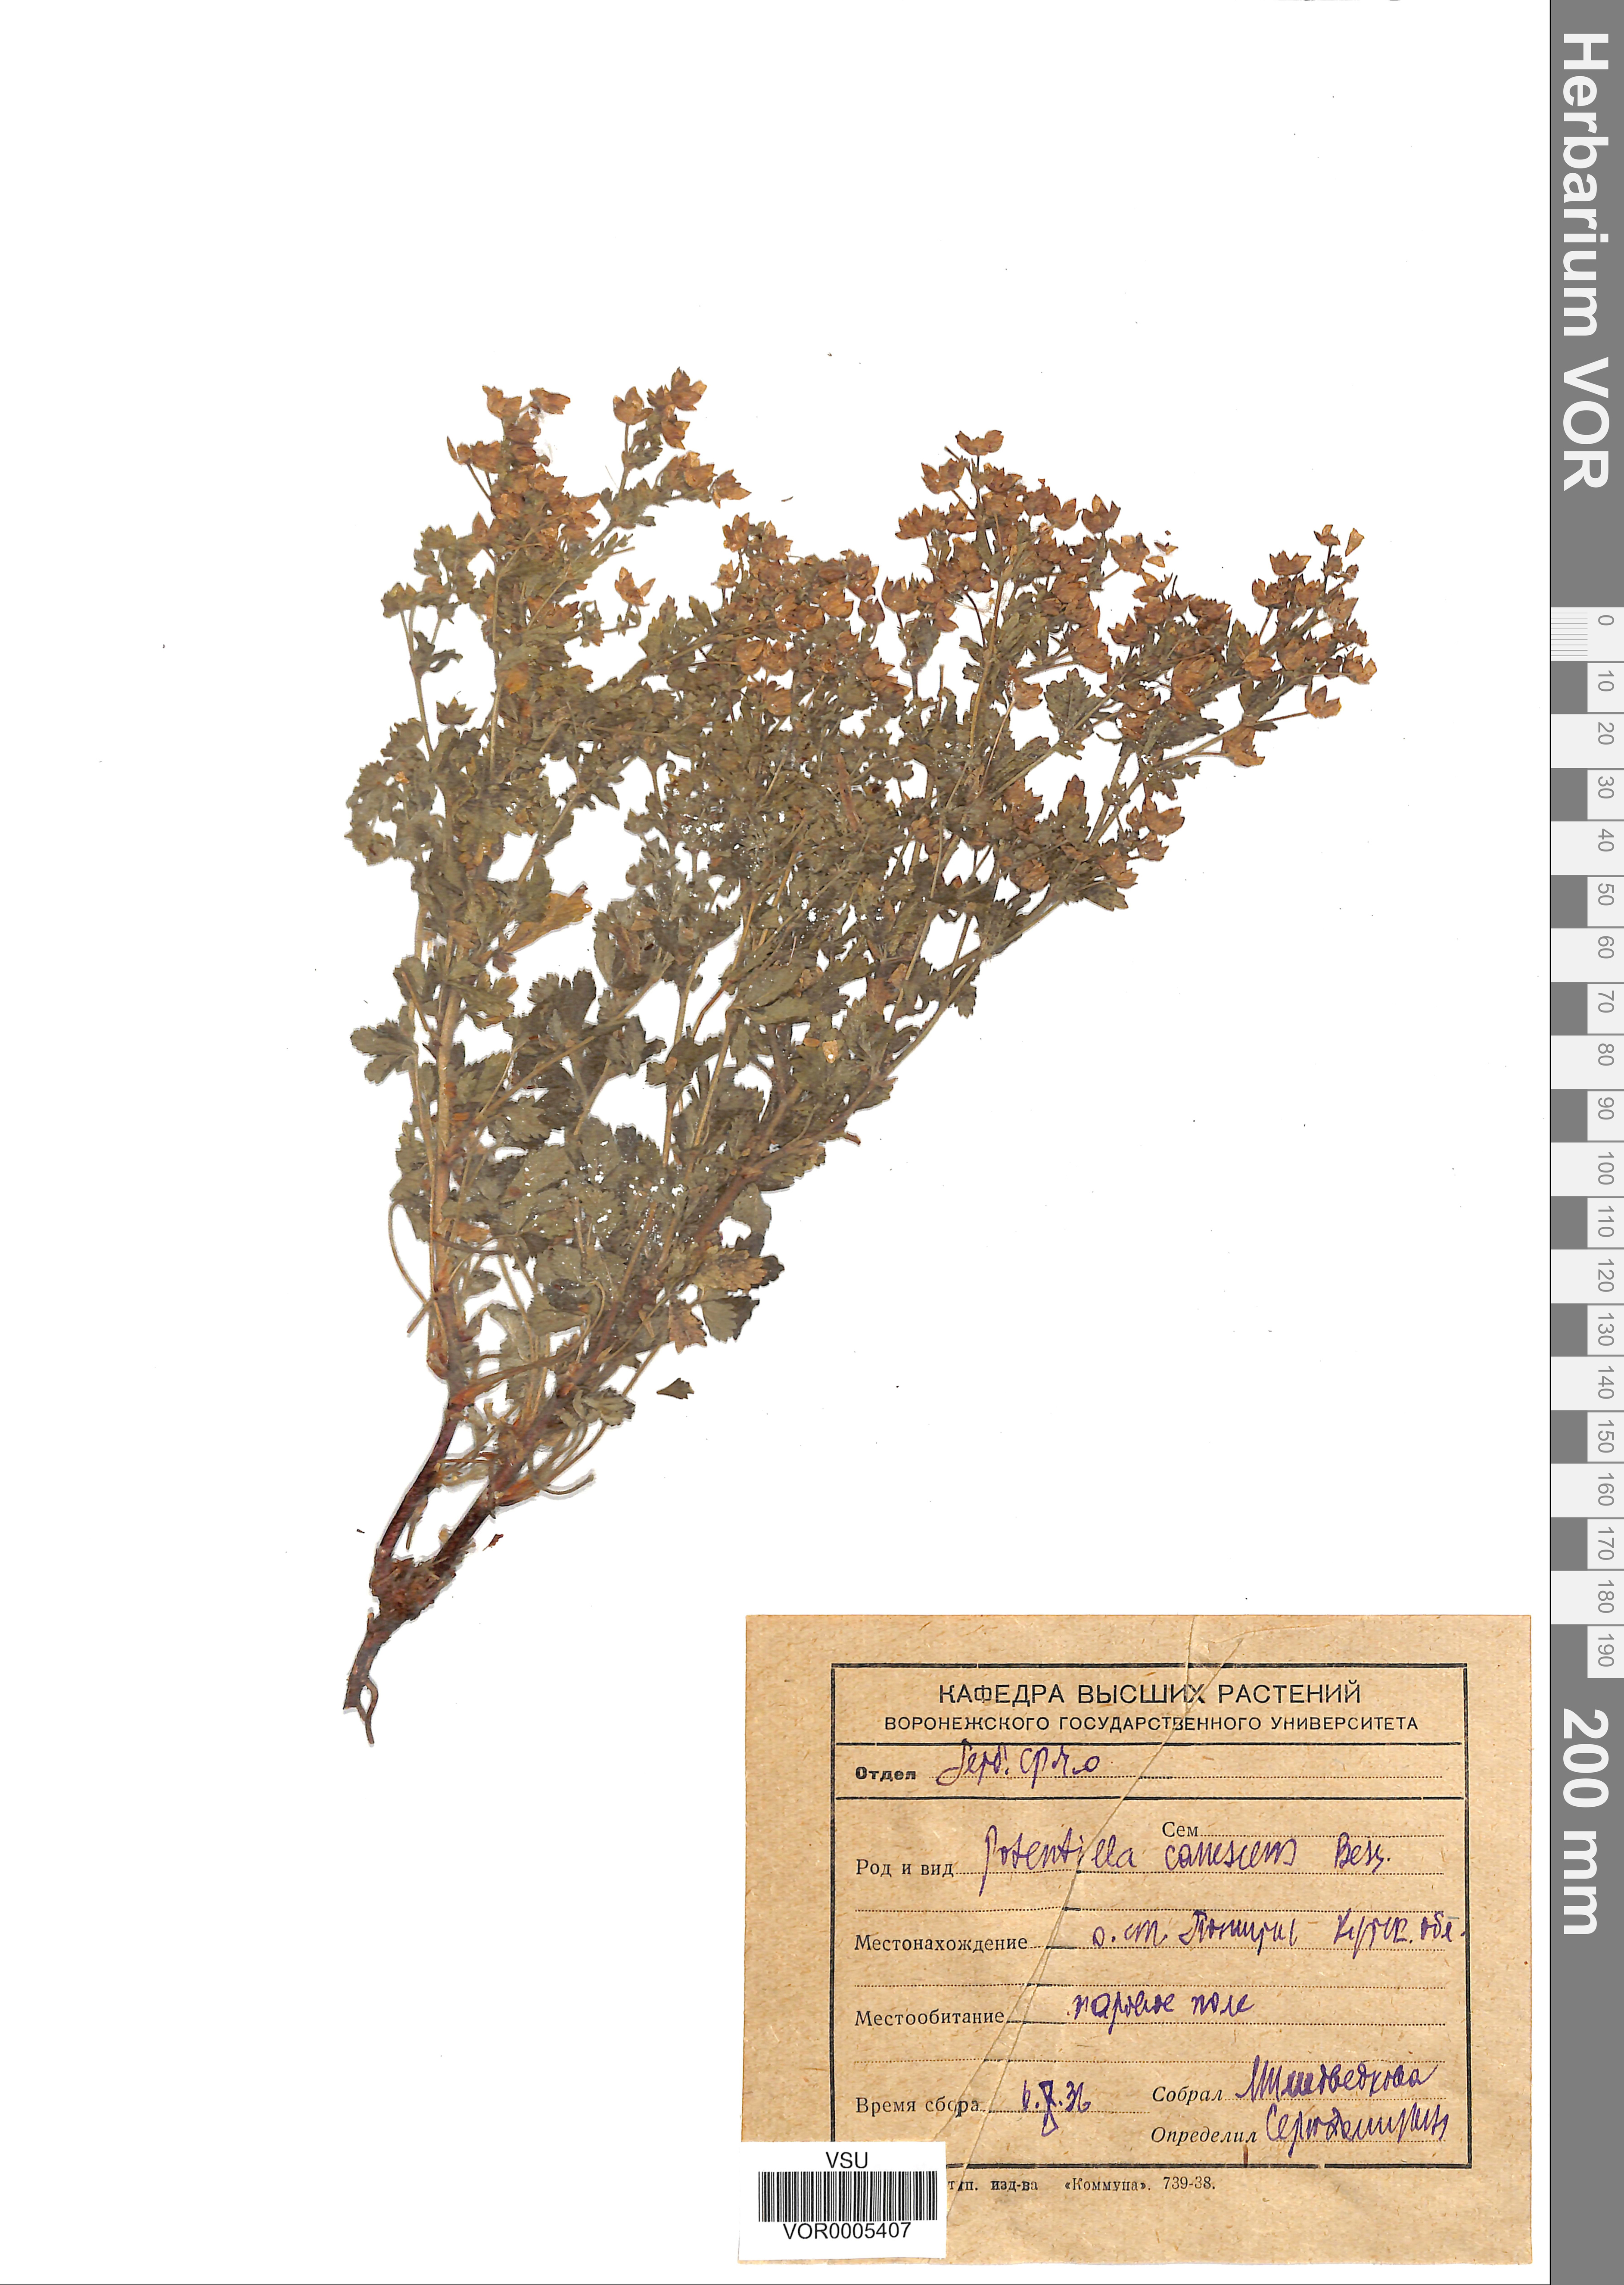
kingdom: Plantae
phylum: Tracheophyta
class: Magnoliopsida
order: Rosales
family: Rosaceae
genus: Potentilla
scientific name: Potentilla inclinata
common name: Grey cinquefoil
